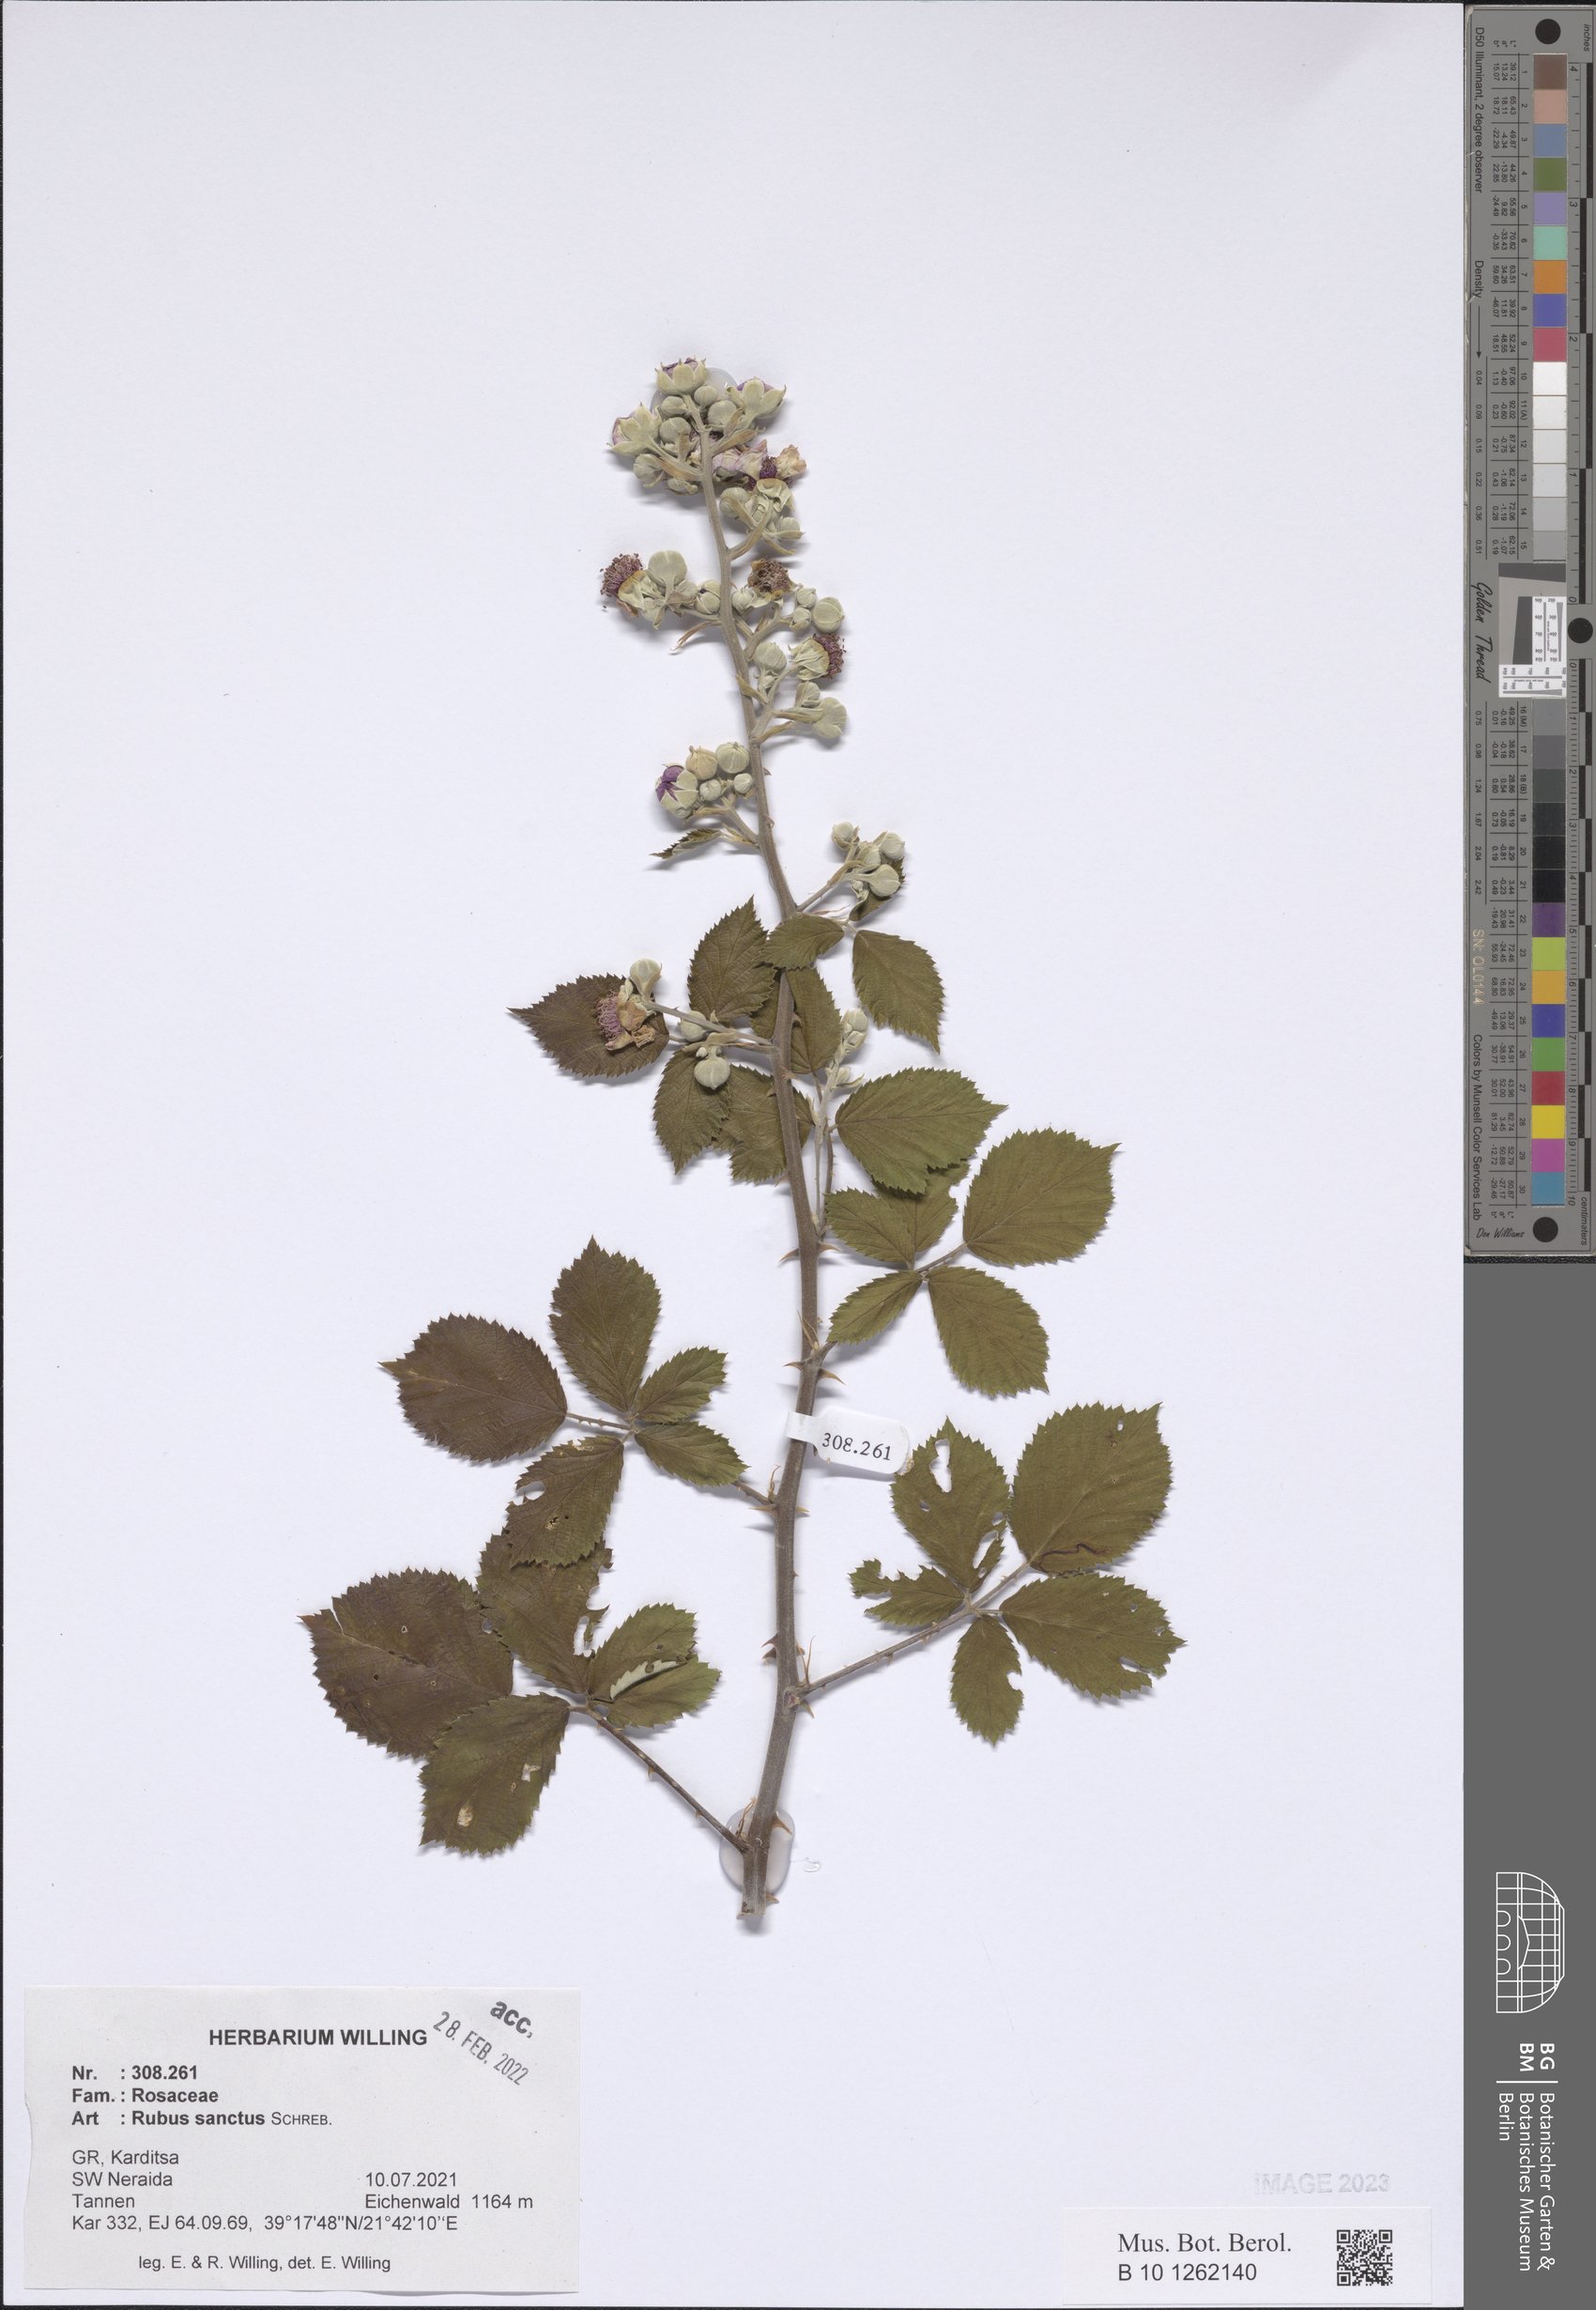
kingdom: Plantae
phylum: Tracheophyta
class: Magnoliopsida
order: Rosales
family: Rosaceae
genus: Rubus
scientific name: Rubus sanctus
